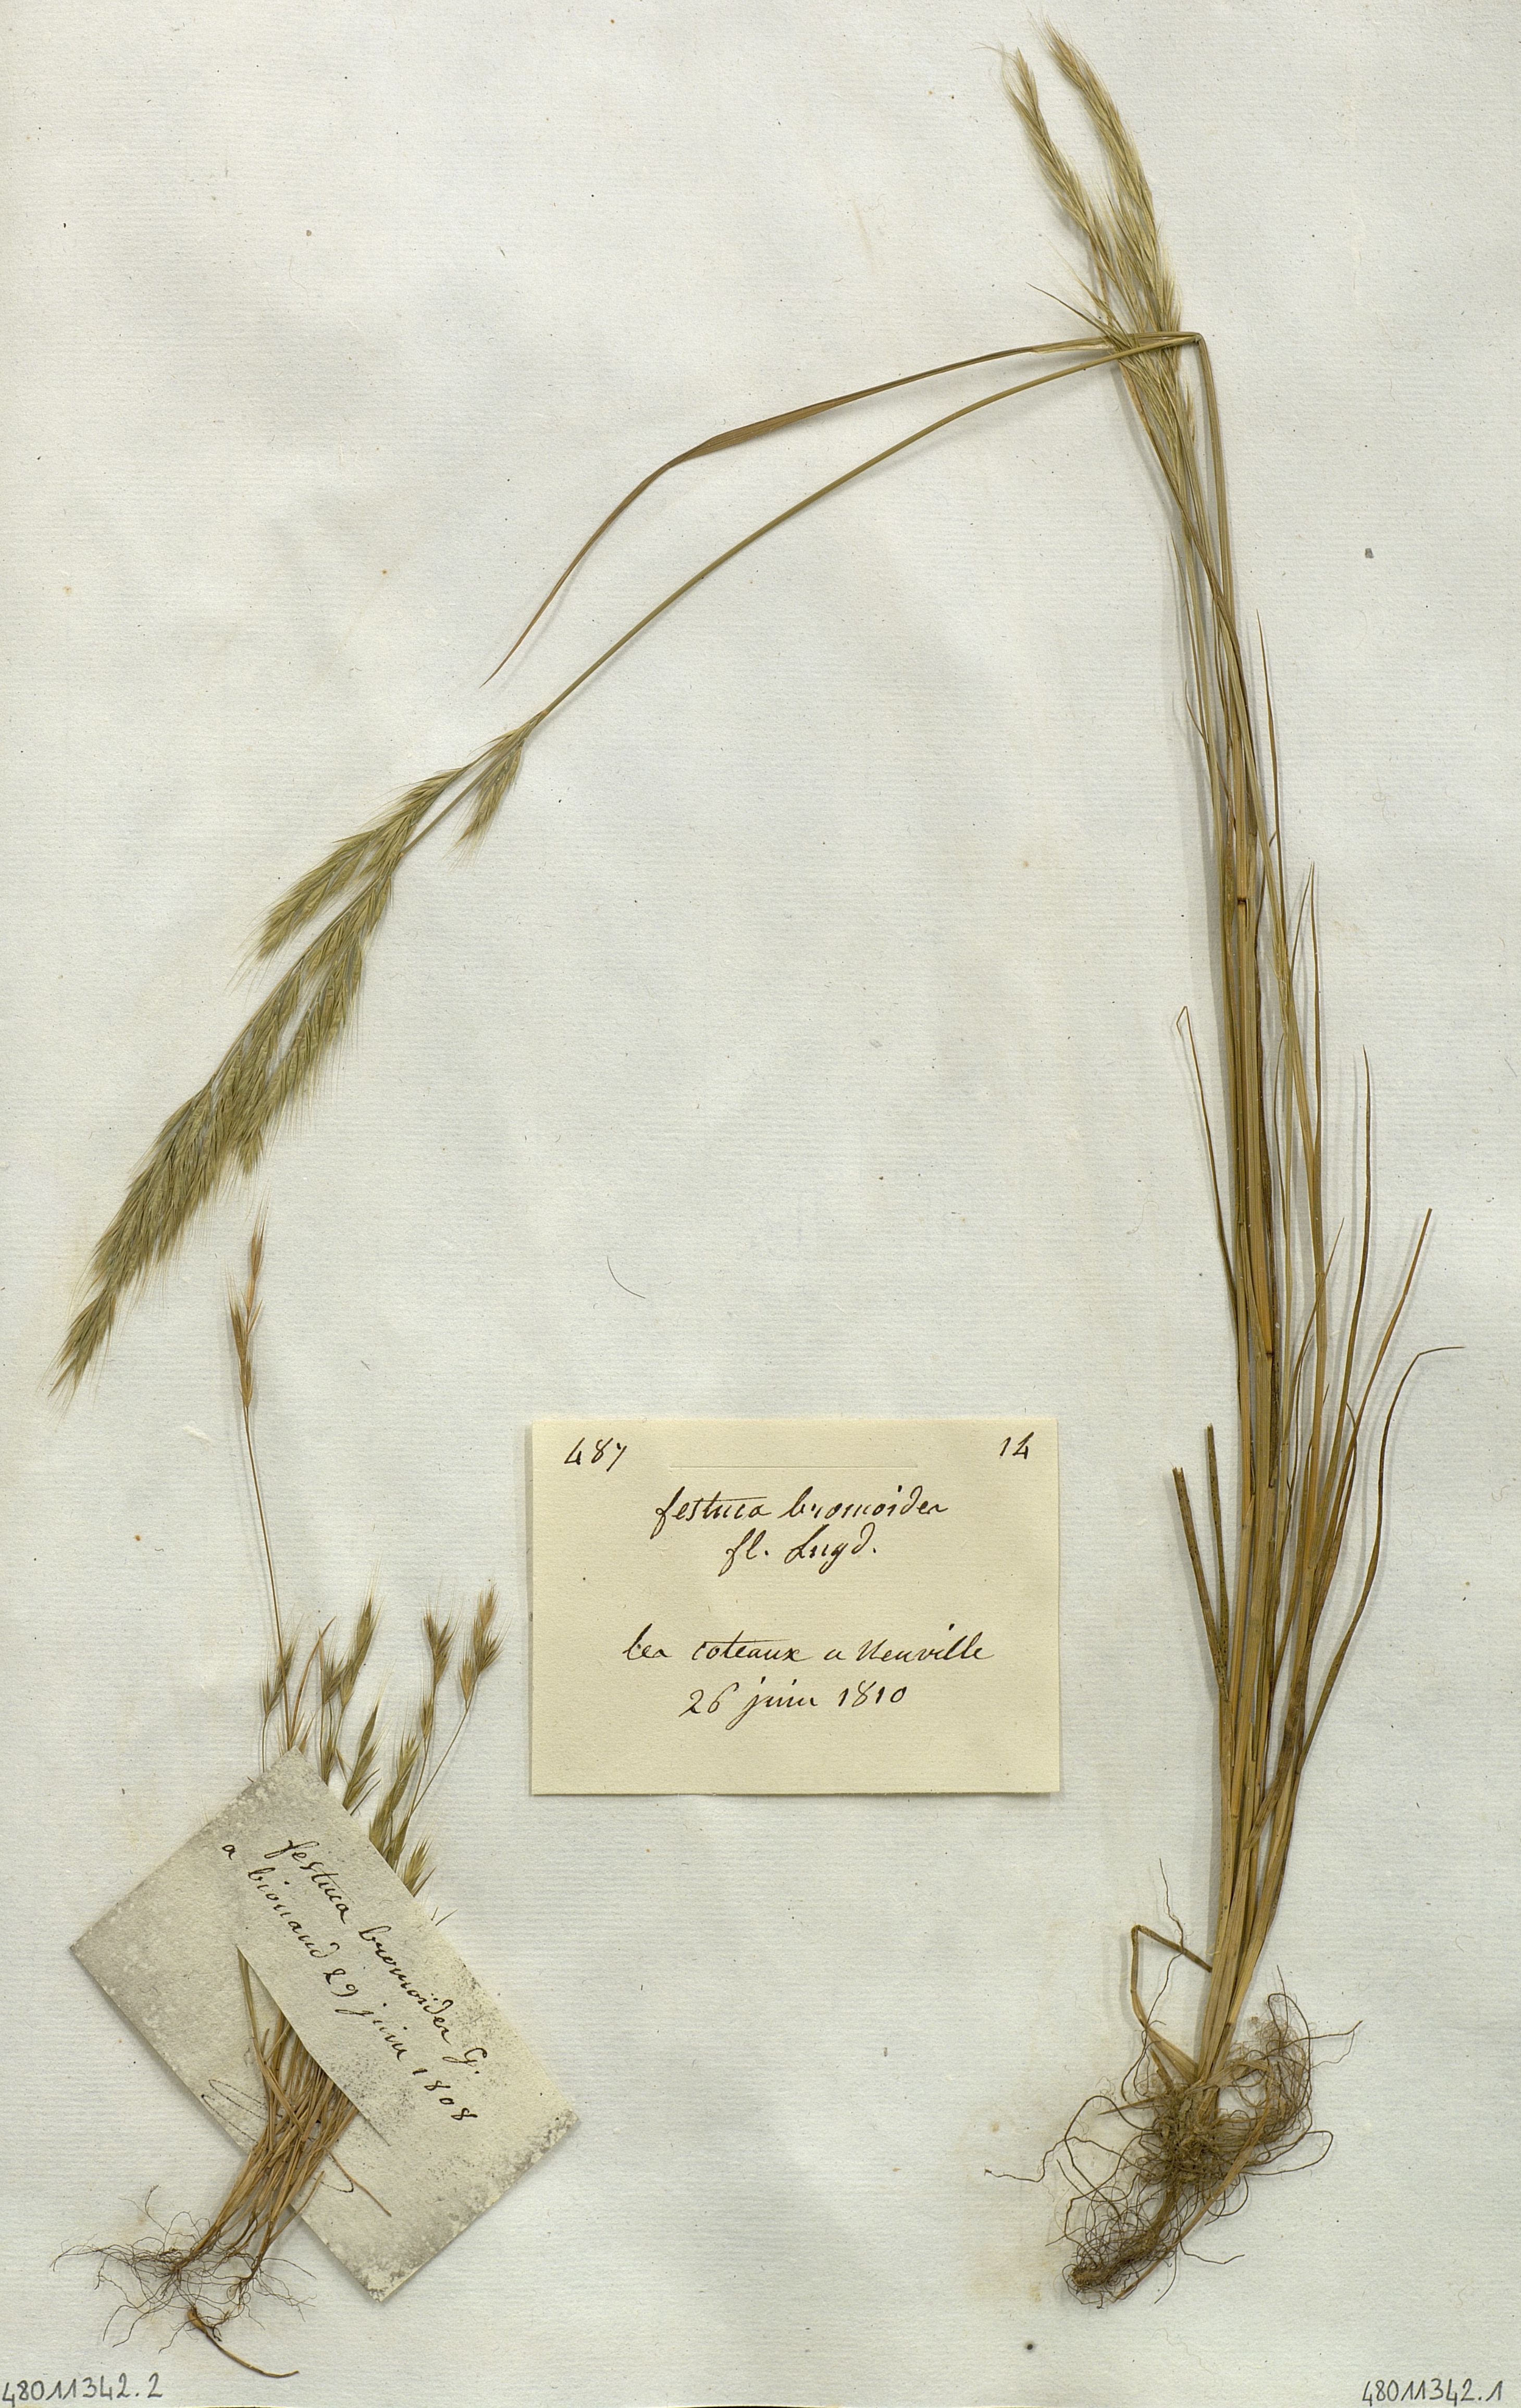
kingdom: Plantae
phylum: Tracheophyta
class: Liliopsida
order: Poales
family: Poaceae
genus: Festuca
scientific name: Festuca bromoides
